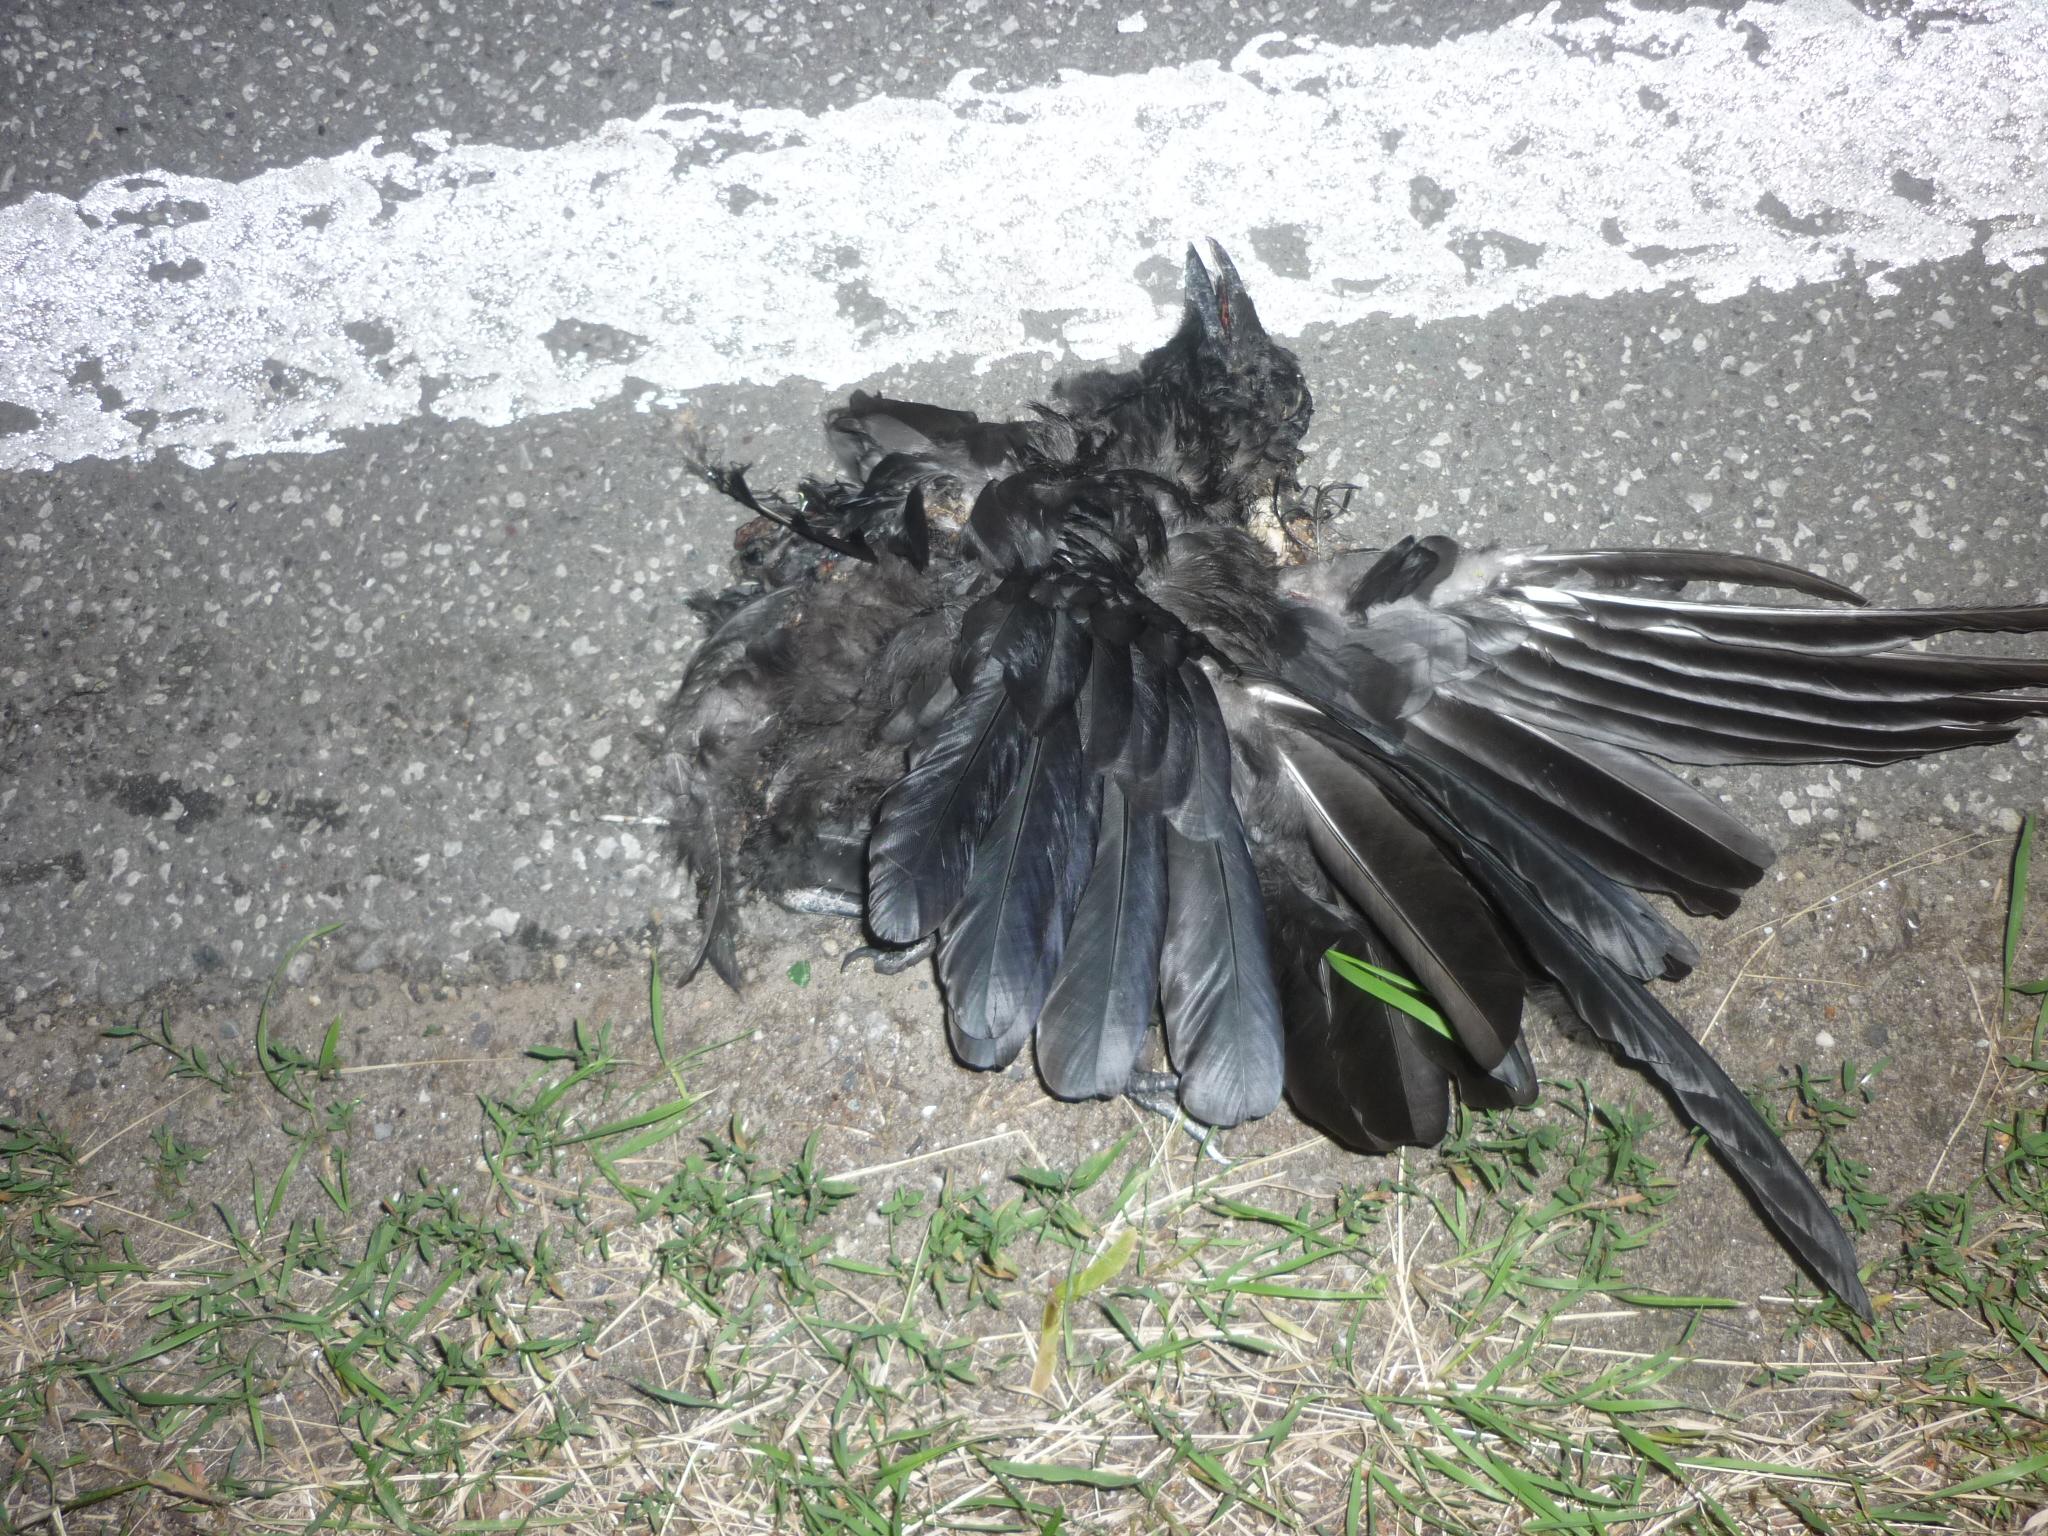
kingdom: Animalia
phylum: Chordata
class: Aves
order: Passeriformes
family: Corvidae
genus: Corvus
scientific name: Corvus corone
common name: Carrion crow
